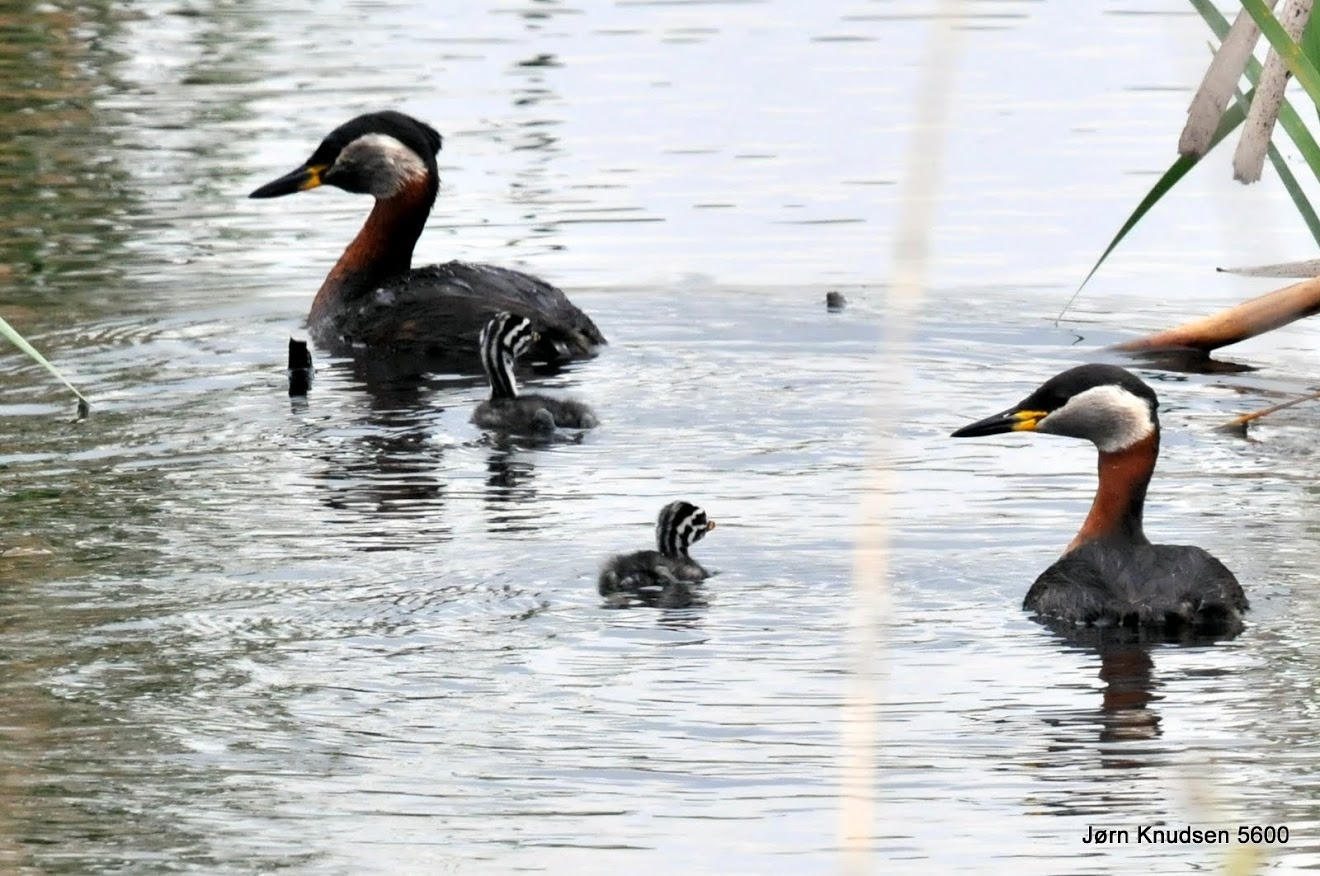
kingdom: Animalia
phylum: Chordata
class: Aves
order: Podicipediformes
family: Podicipedidae
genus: Podiceps
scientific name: Podiceps grisegena
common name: Gråstrubet lappedykker
